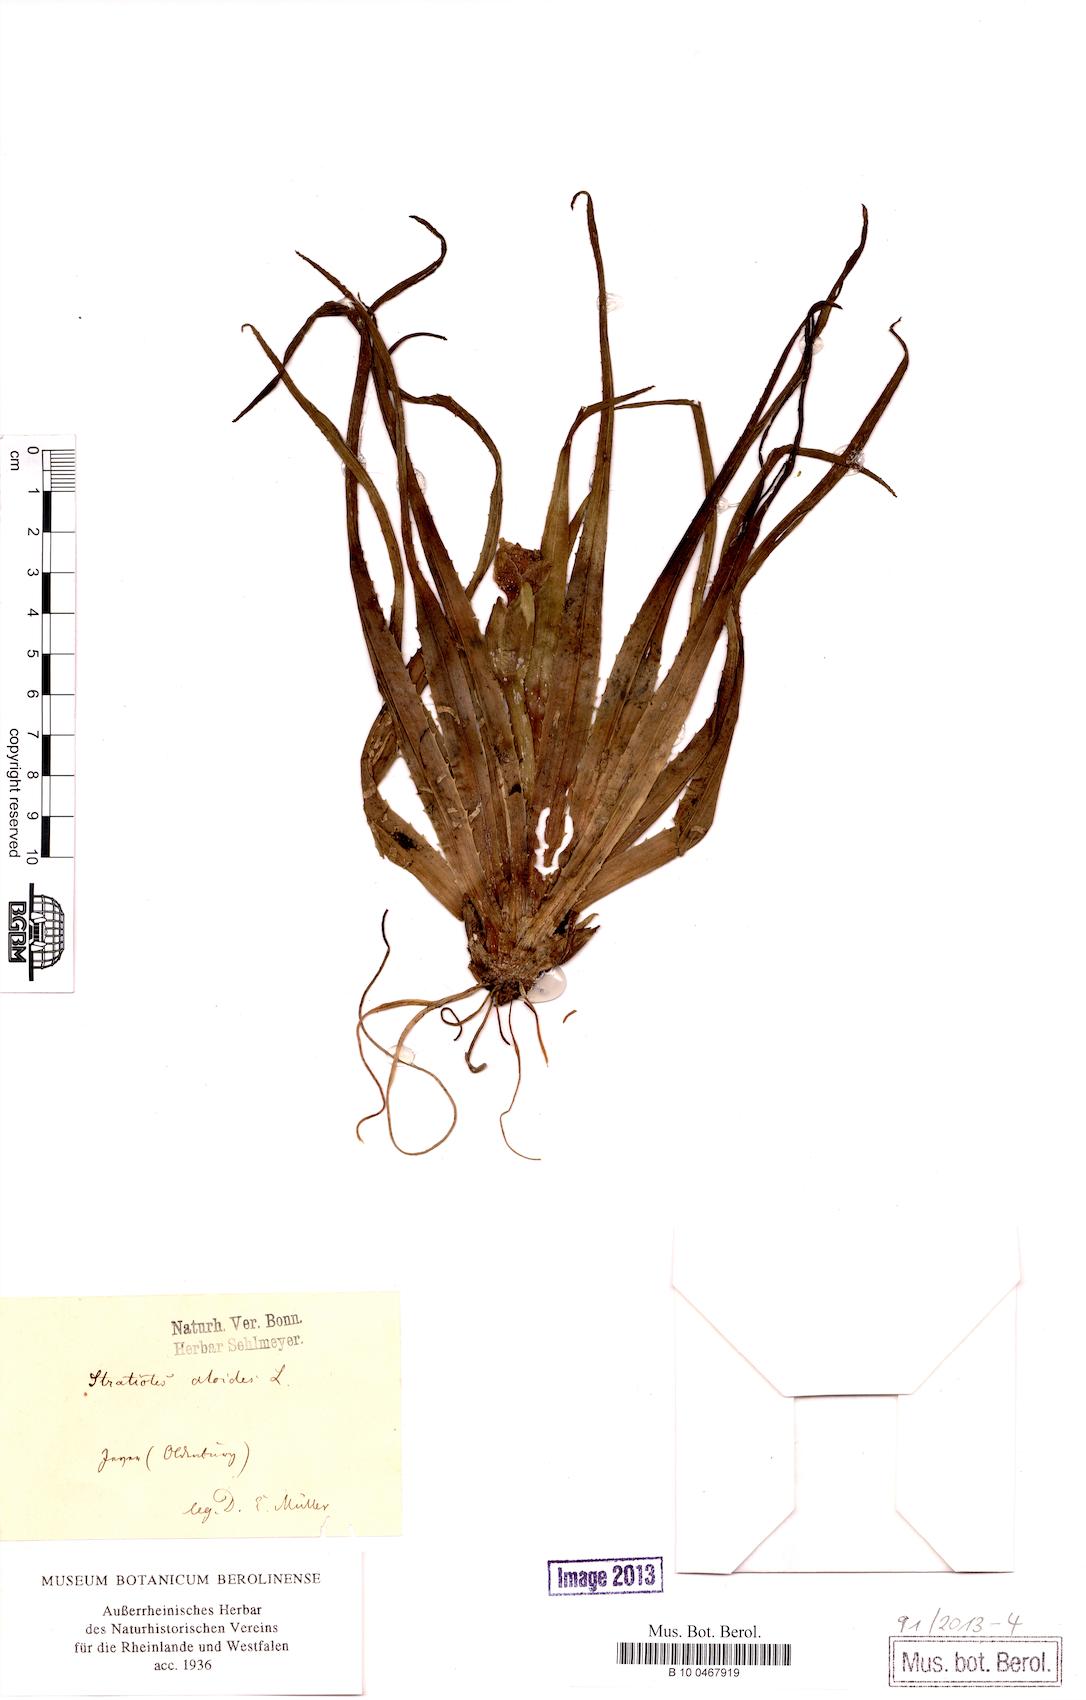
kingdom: Plantae
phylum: Tracheophyta
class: Liliopsida
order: Alismatales
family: Hydrocharitaceae
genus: Stratiotes
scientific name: Stratiotes aloides
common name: Water-soldier
